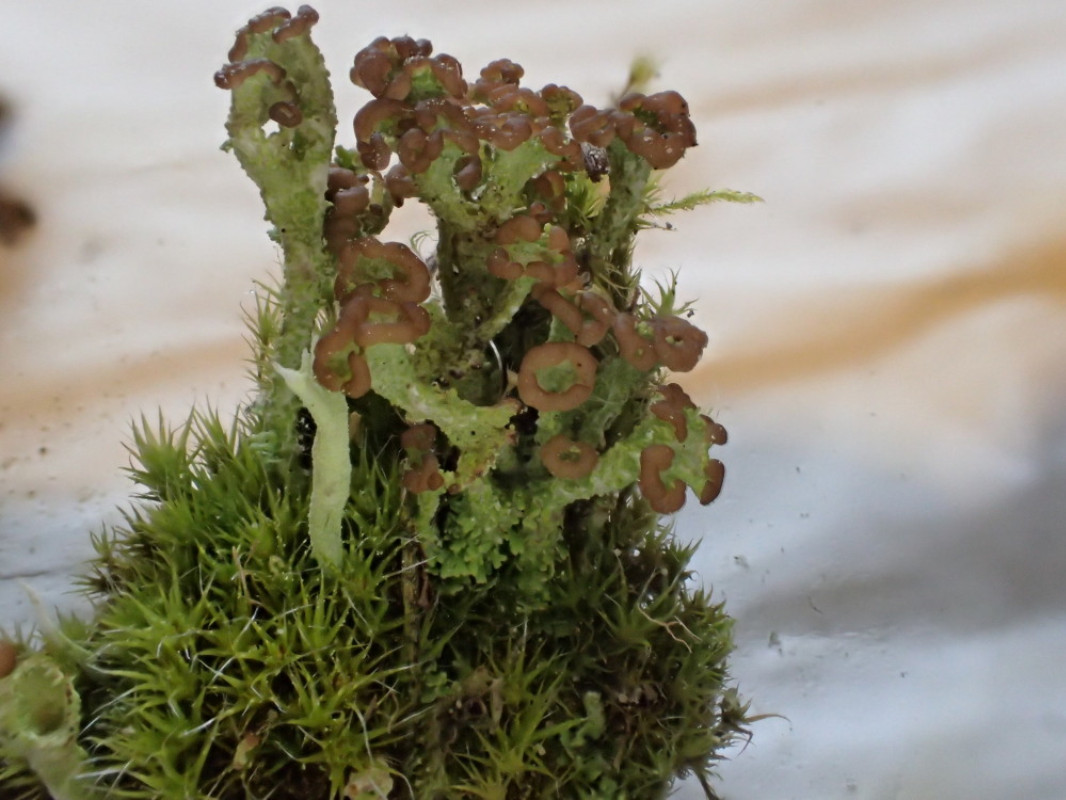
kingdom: Fungi
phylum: Ascomycota
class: Lecanoromycetes
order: Lecanorales
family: Cladoniaceae
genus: Cladonia
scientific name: Cladonia ramulosa
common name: kliddet bægerlav
